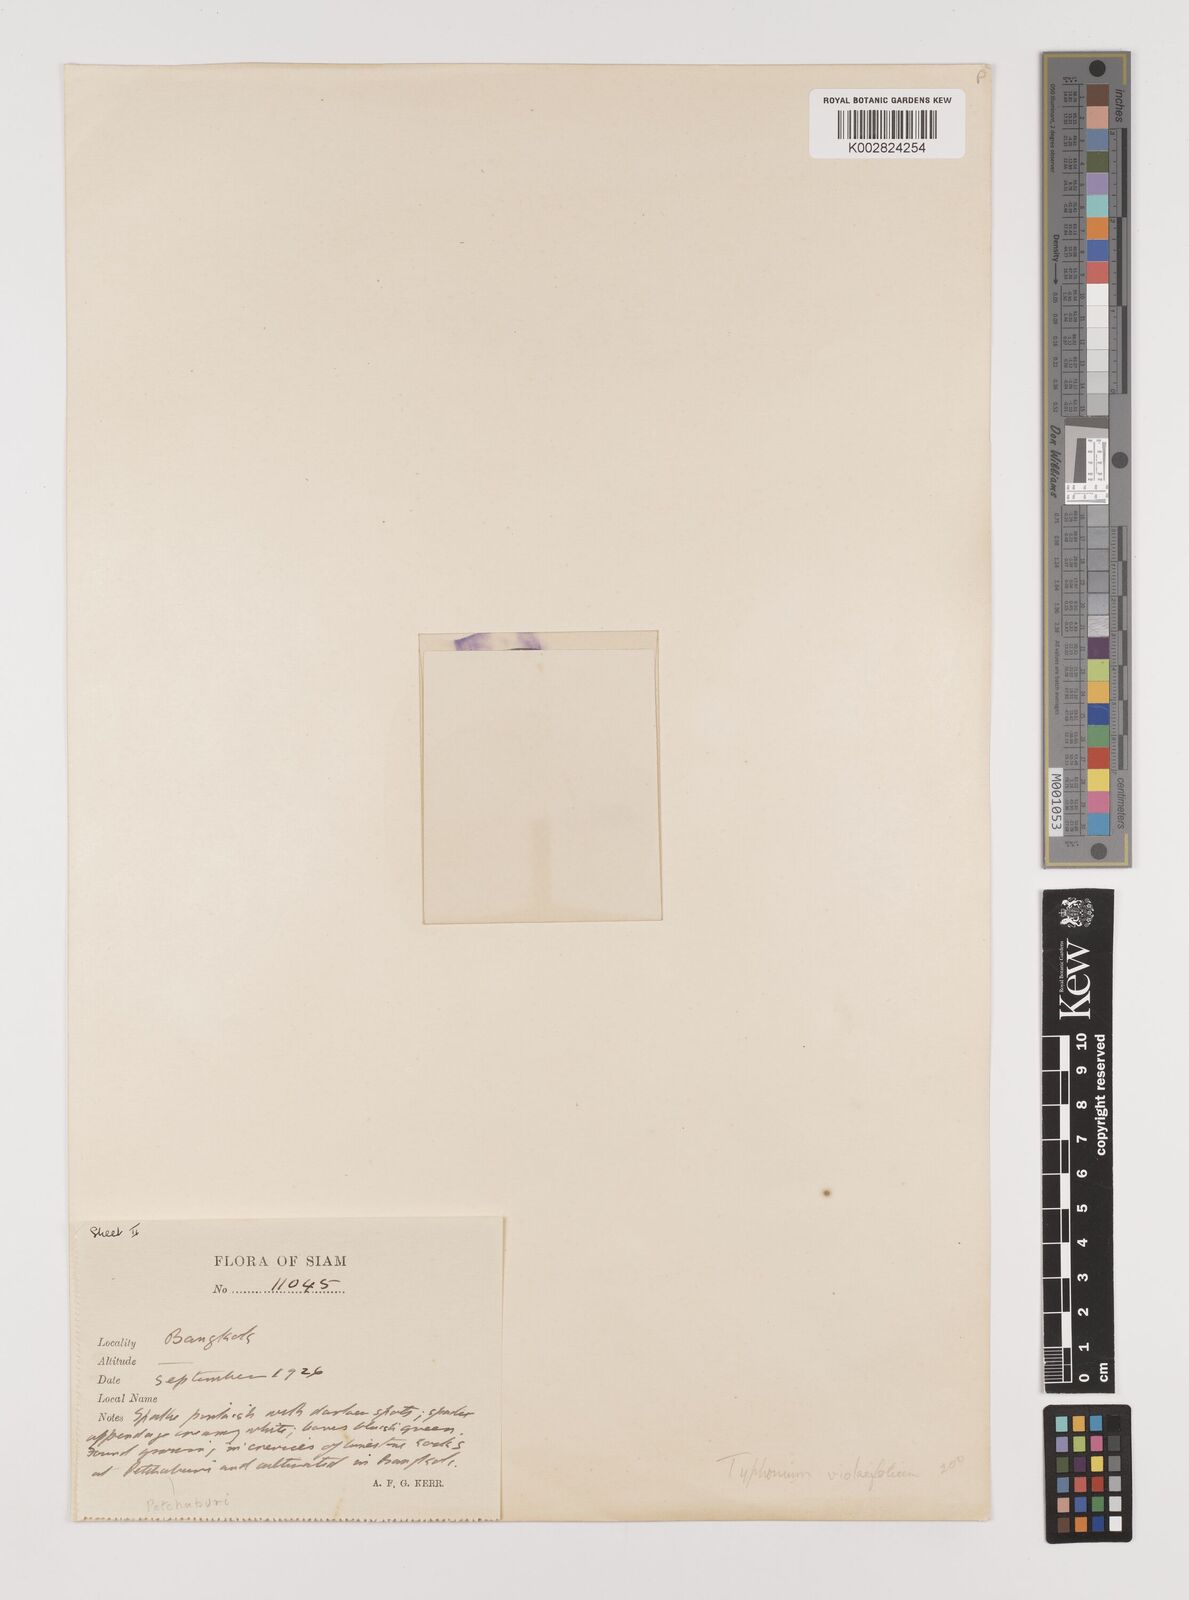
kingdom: Plantae
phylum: Tracheophyta
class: Liliopsida
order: Alismatales
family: Araceae
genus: Typhonium
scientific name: Typhonium violifolium
